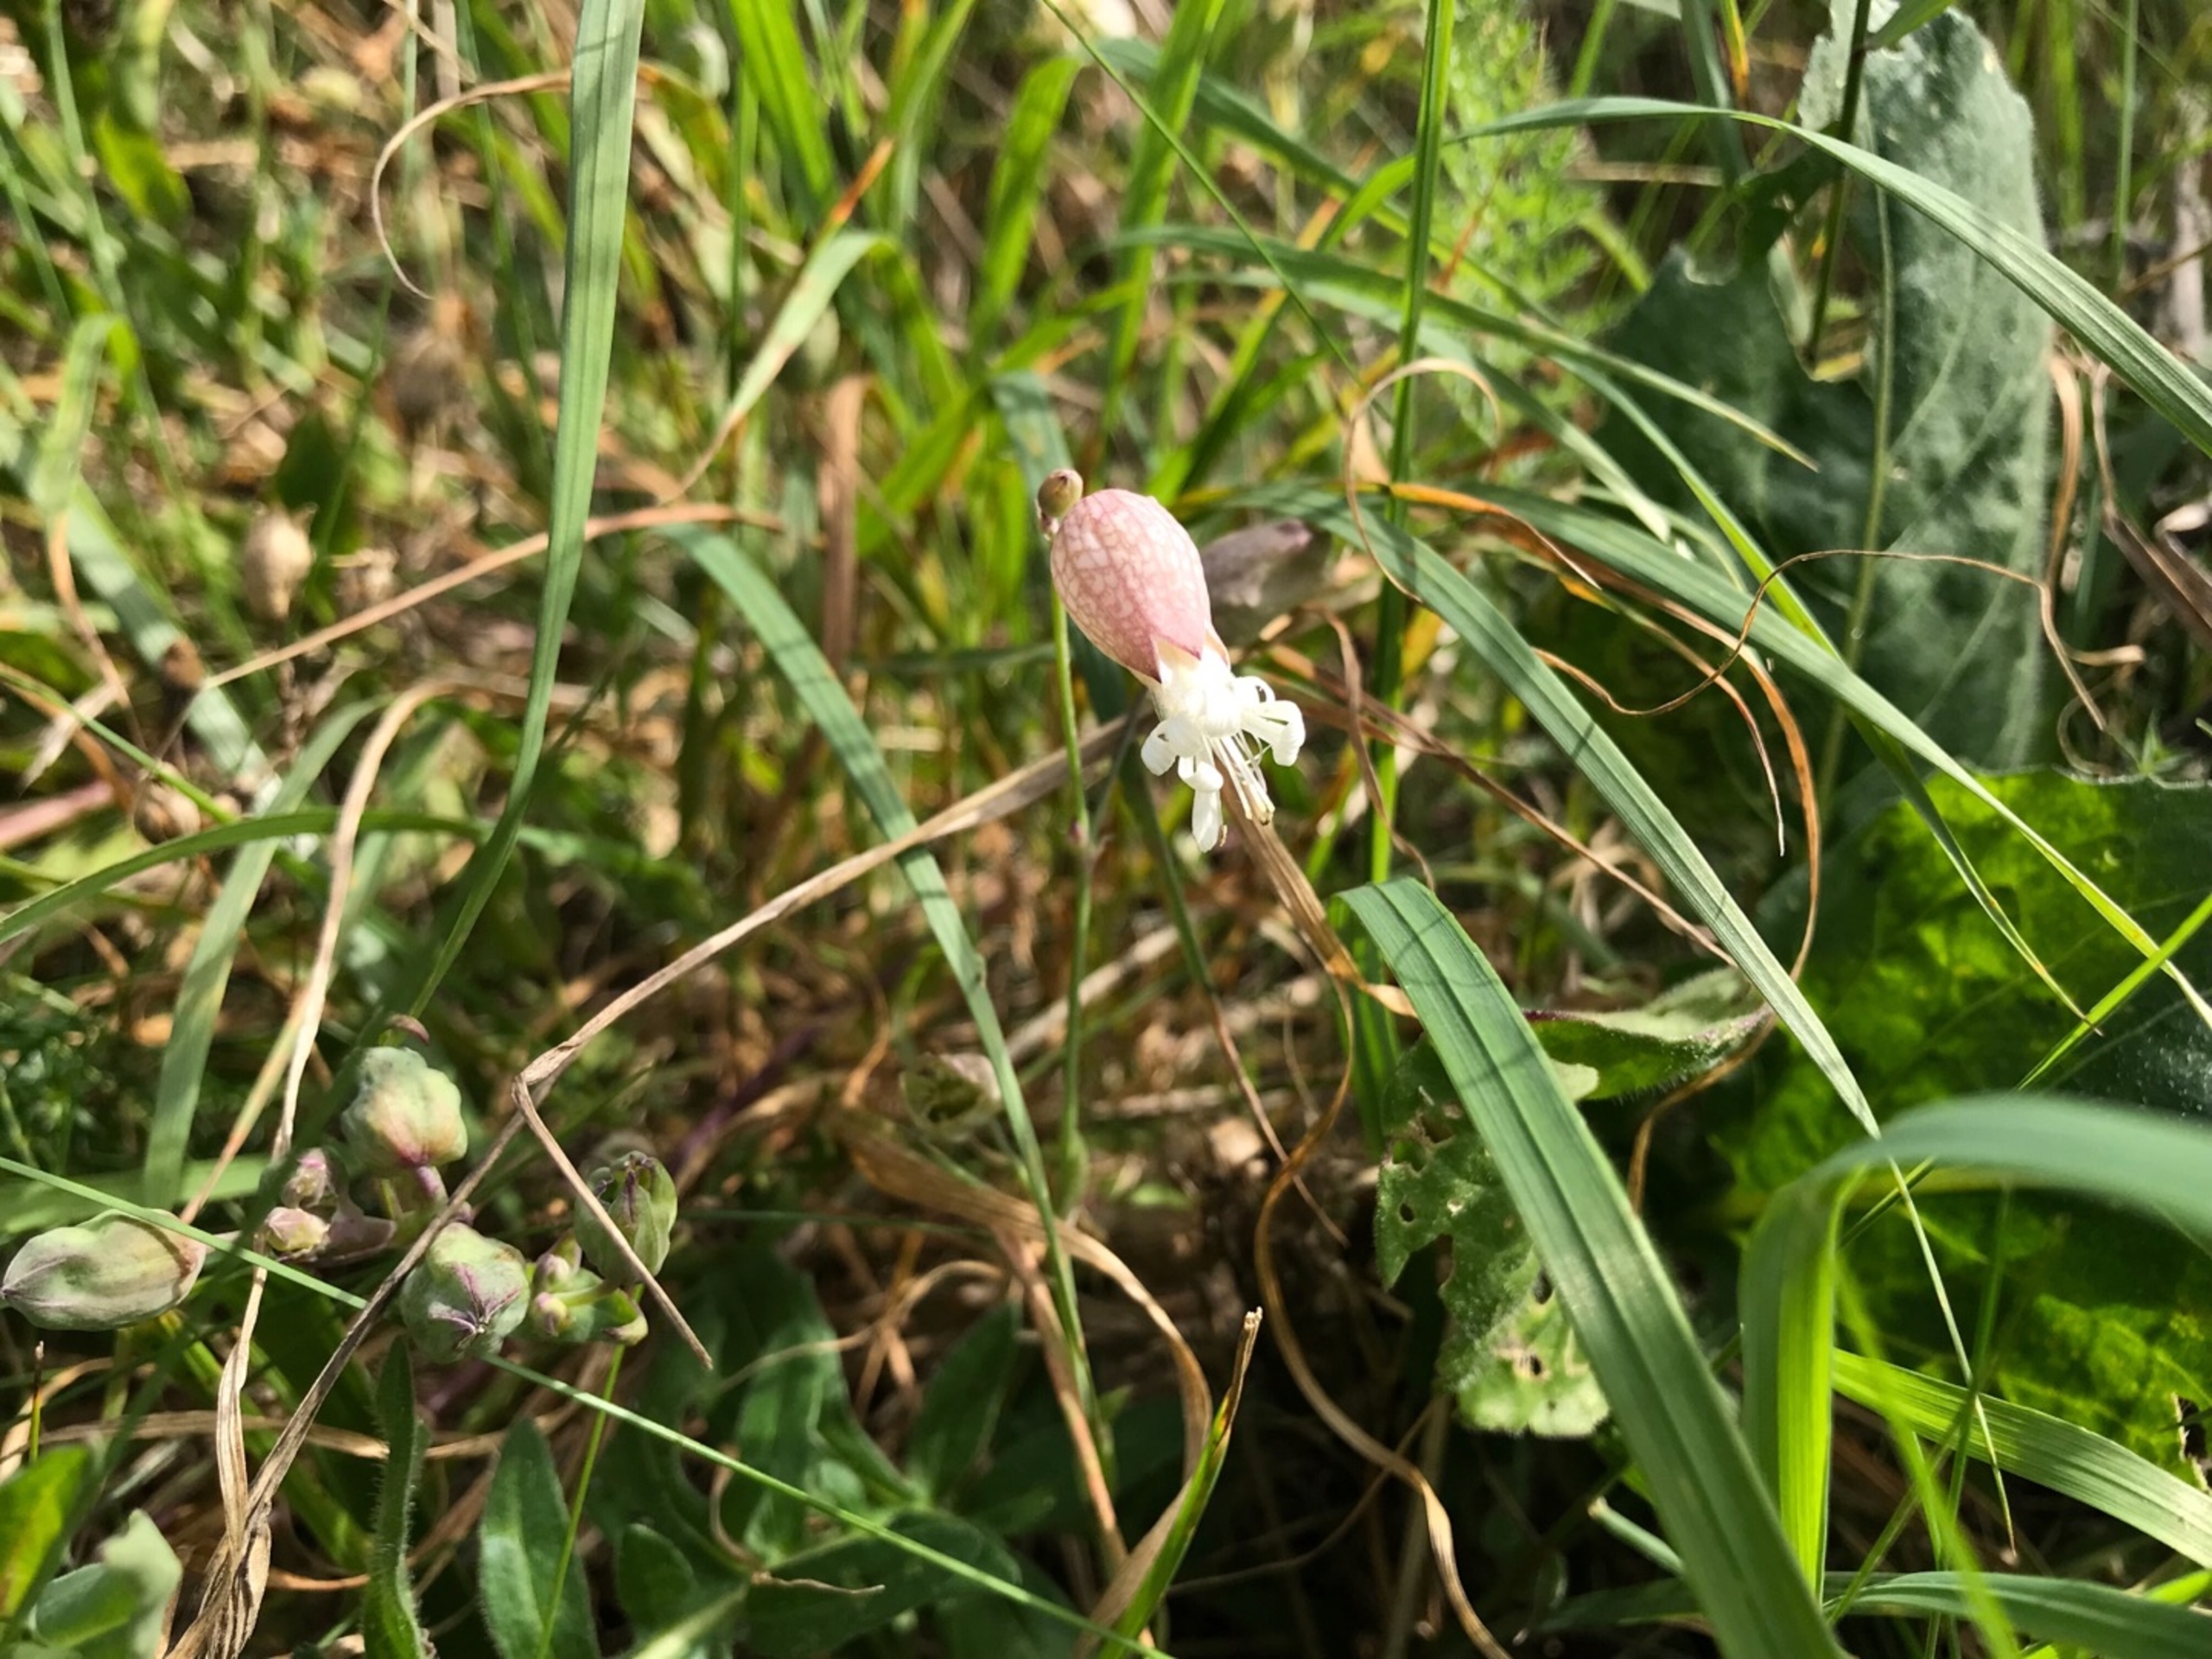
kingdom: Plantae
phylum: Tracheophyta
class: Magnoliopsida
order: Caryophyllales
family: Caryophyllaceae
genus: Silene
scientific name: Silene vulgaris
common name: Blæresmælde
